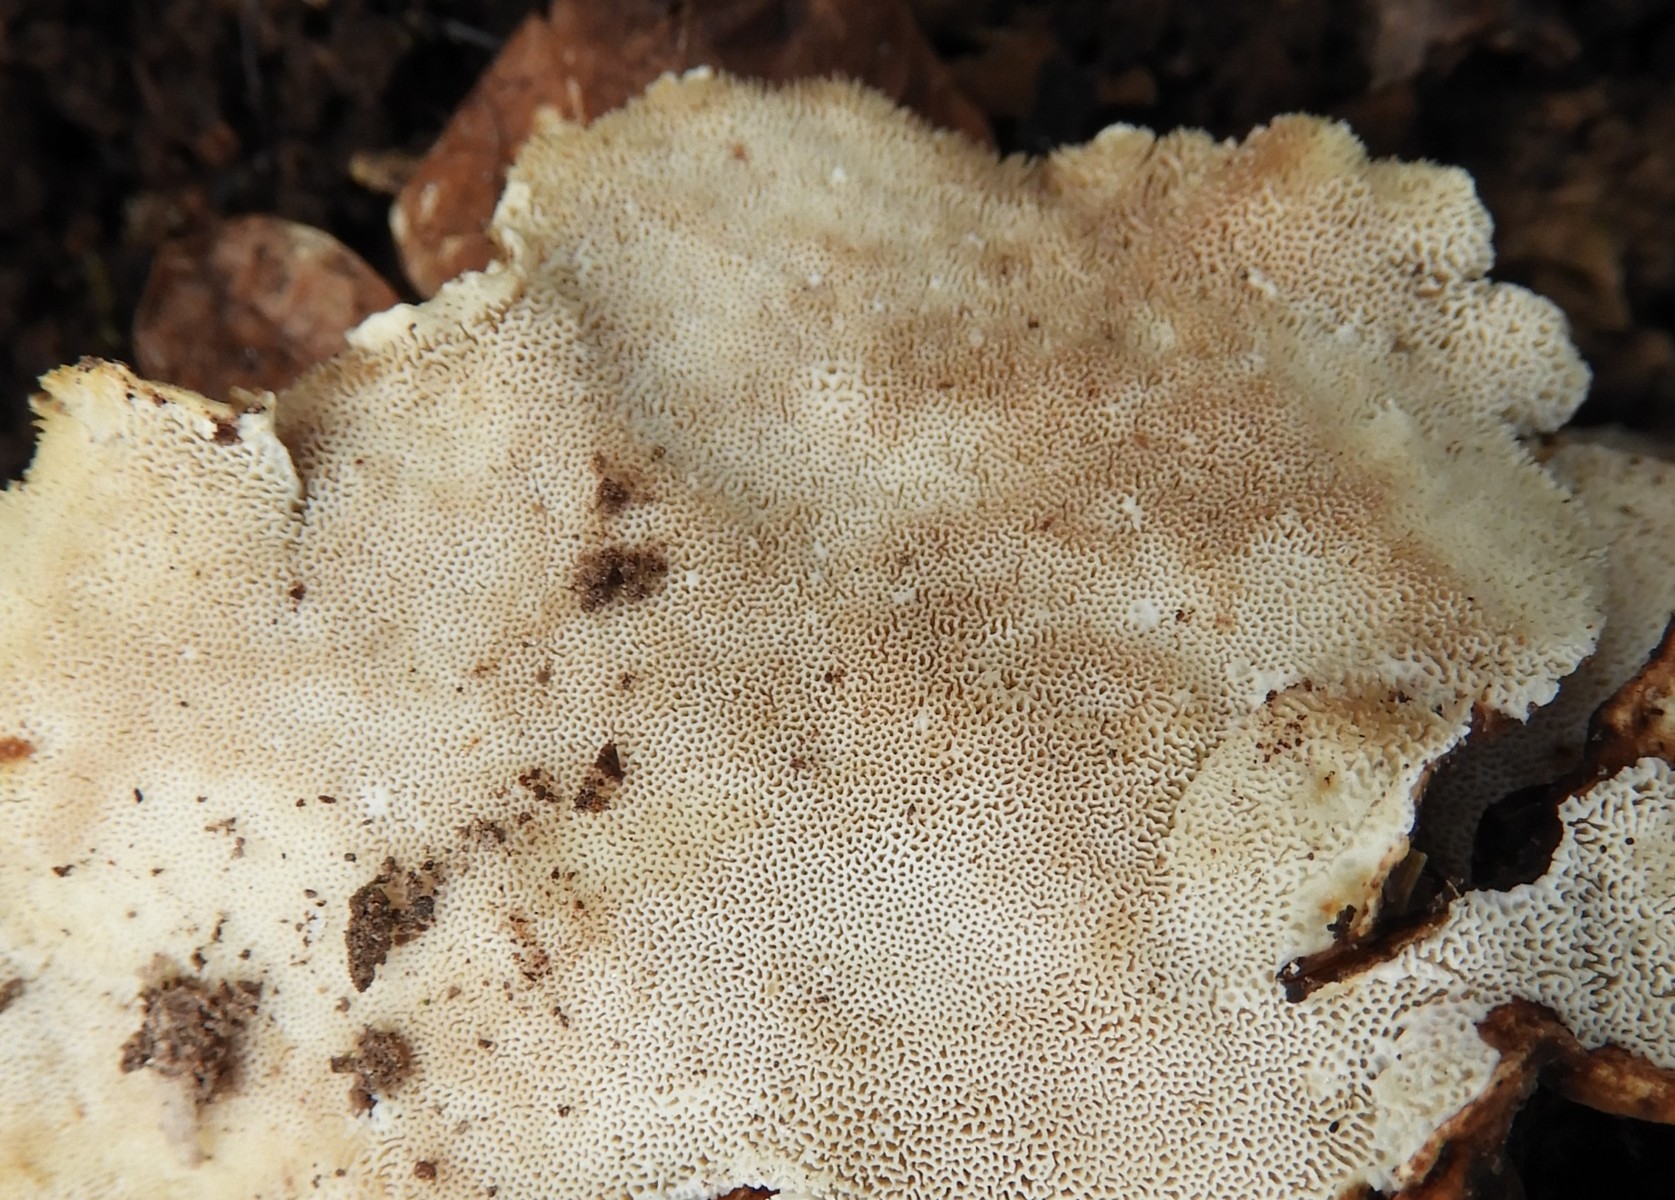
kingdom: Fungi
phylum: Basidiomycota
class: Agaricomycetes
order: Polyporales
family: Polyporaceae
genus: Trametes
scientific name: Trametes versicolor
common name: broget læderporesvamp
